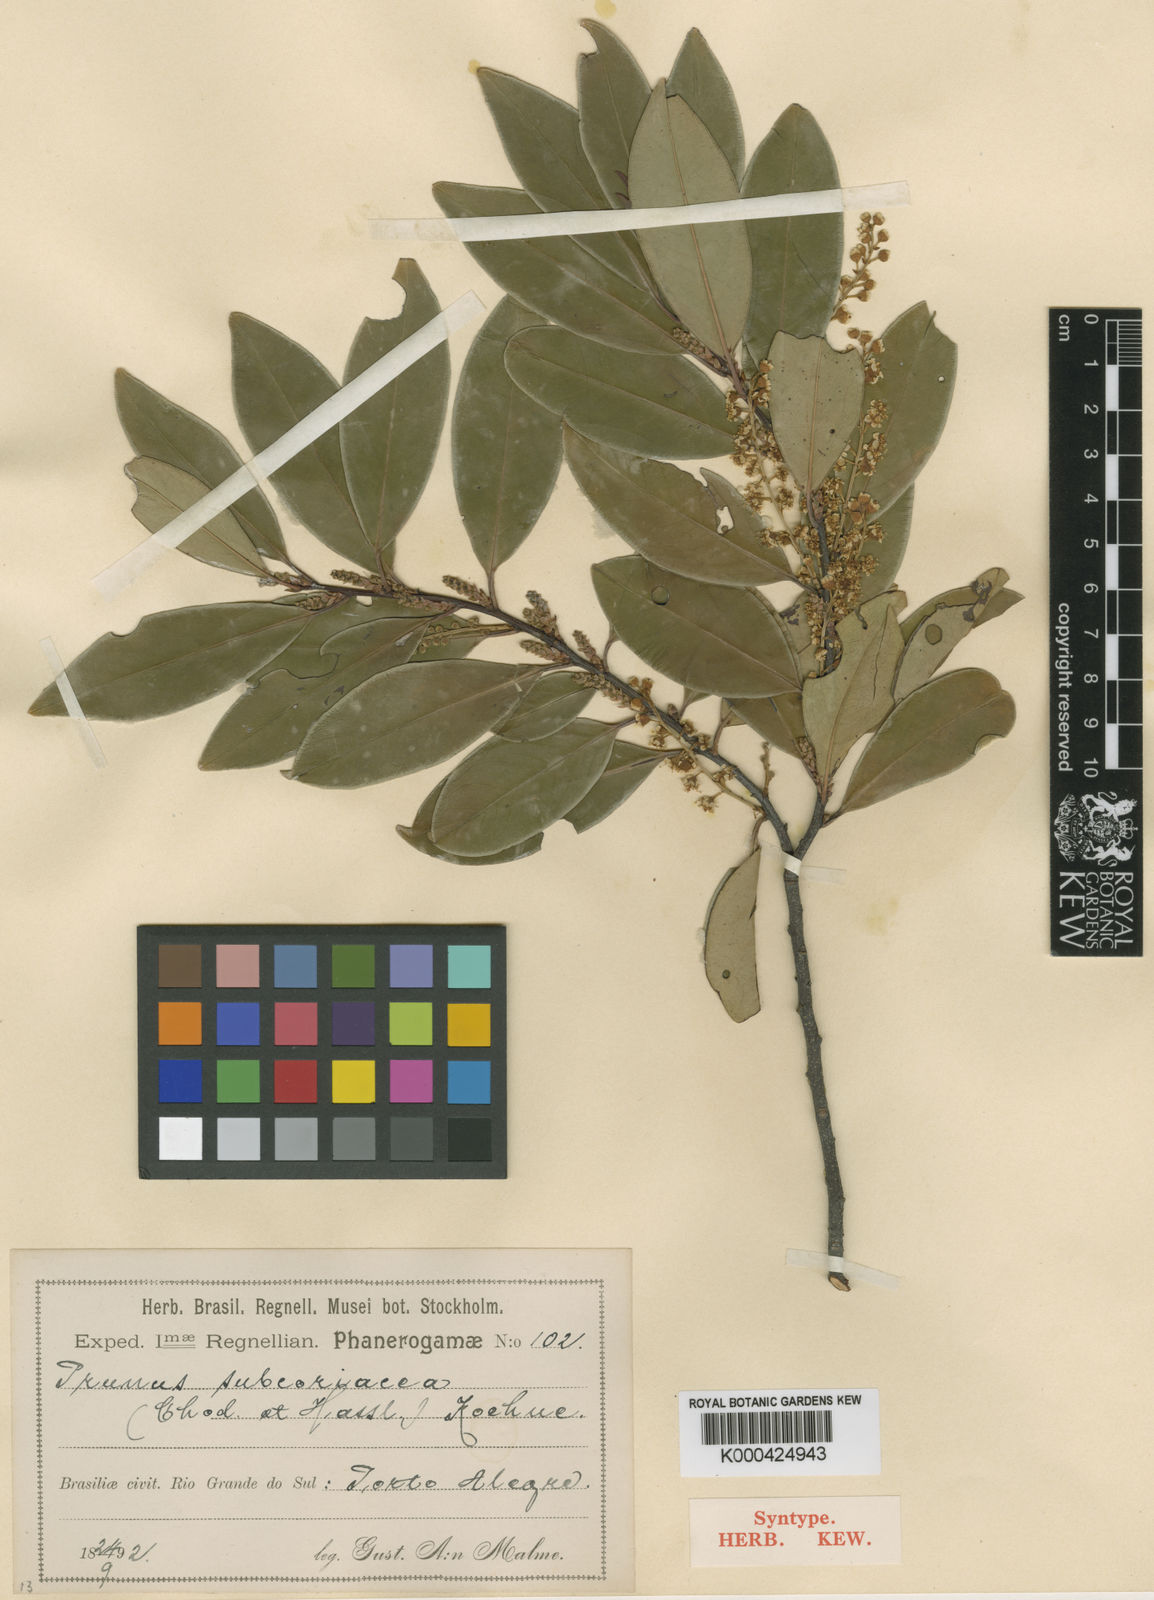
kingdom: Plantae
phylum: Tracheophyta
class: Magnoliopsida
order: Rosales
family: Rosaceae
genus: Prunus
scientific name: Prunus subcoriacea
